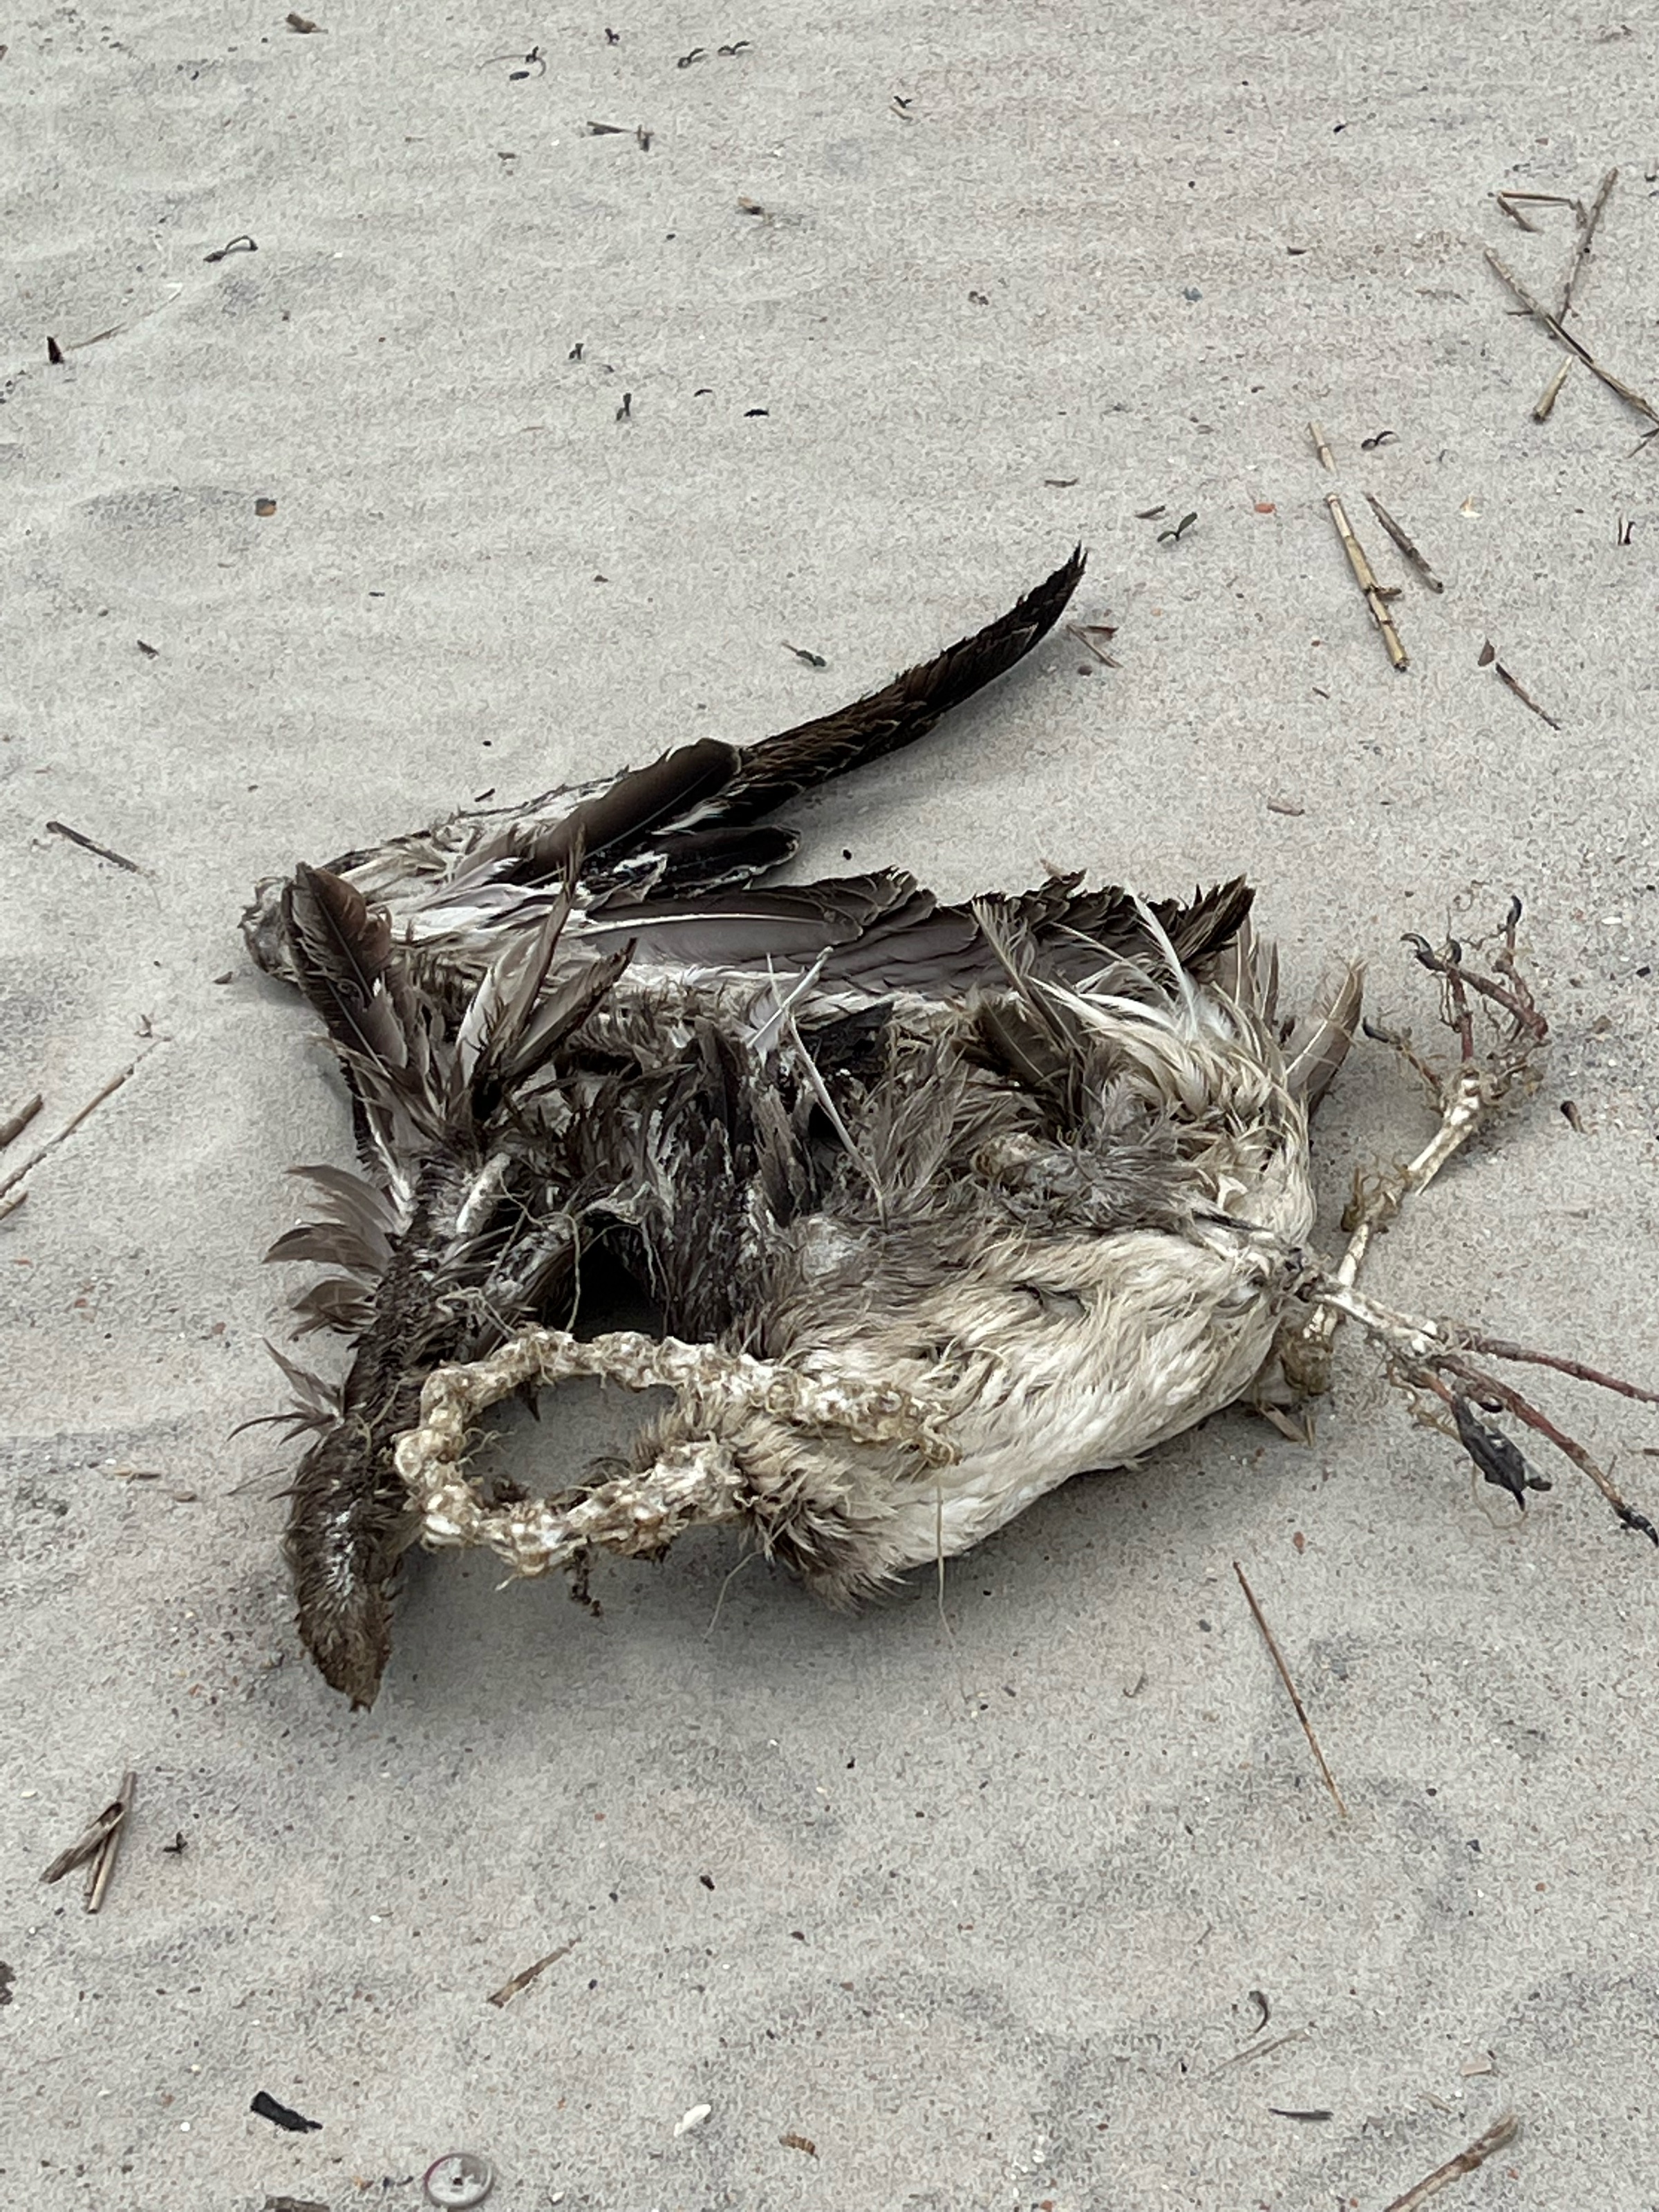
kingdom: Animalia
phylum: Chordata
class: Aves
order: Pelecaniformes
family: Pelecanidae
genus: Pelecanus
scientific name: Pelecanus occidentalis
